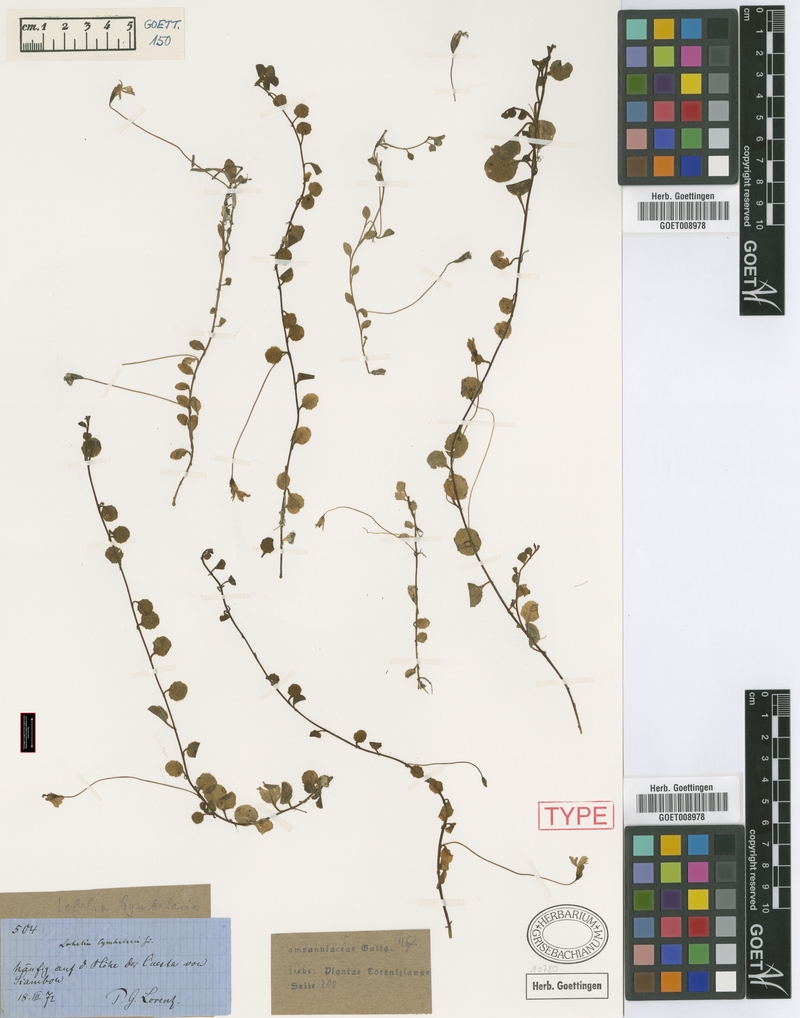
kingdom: Plantae
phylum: Tracheophyta
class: Magnoliopsida
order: Asterales
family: Campanulaceae
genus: Lobelia
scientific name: Lobelia nana
